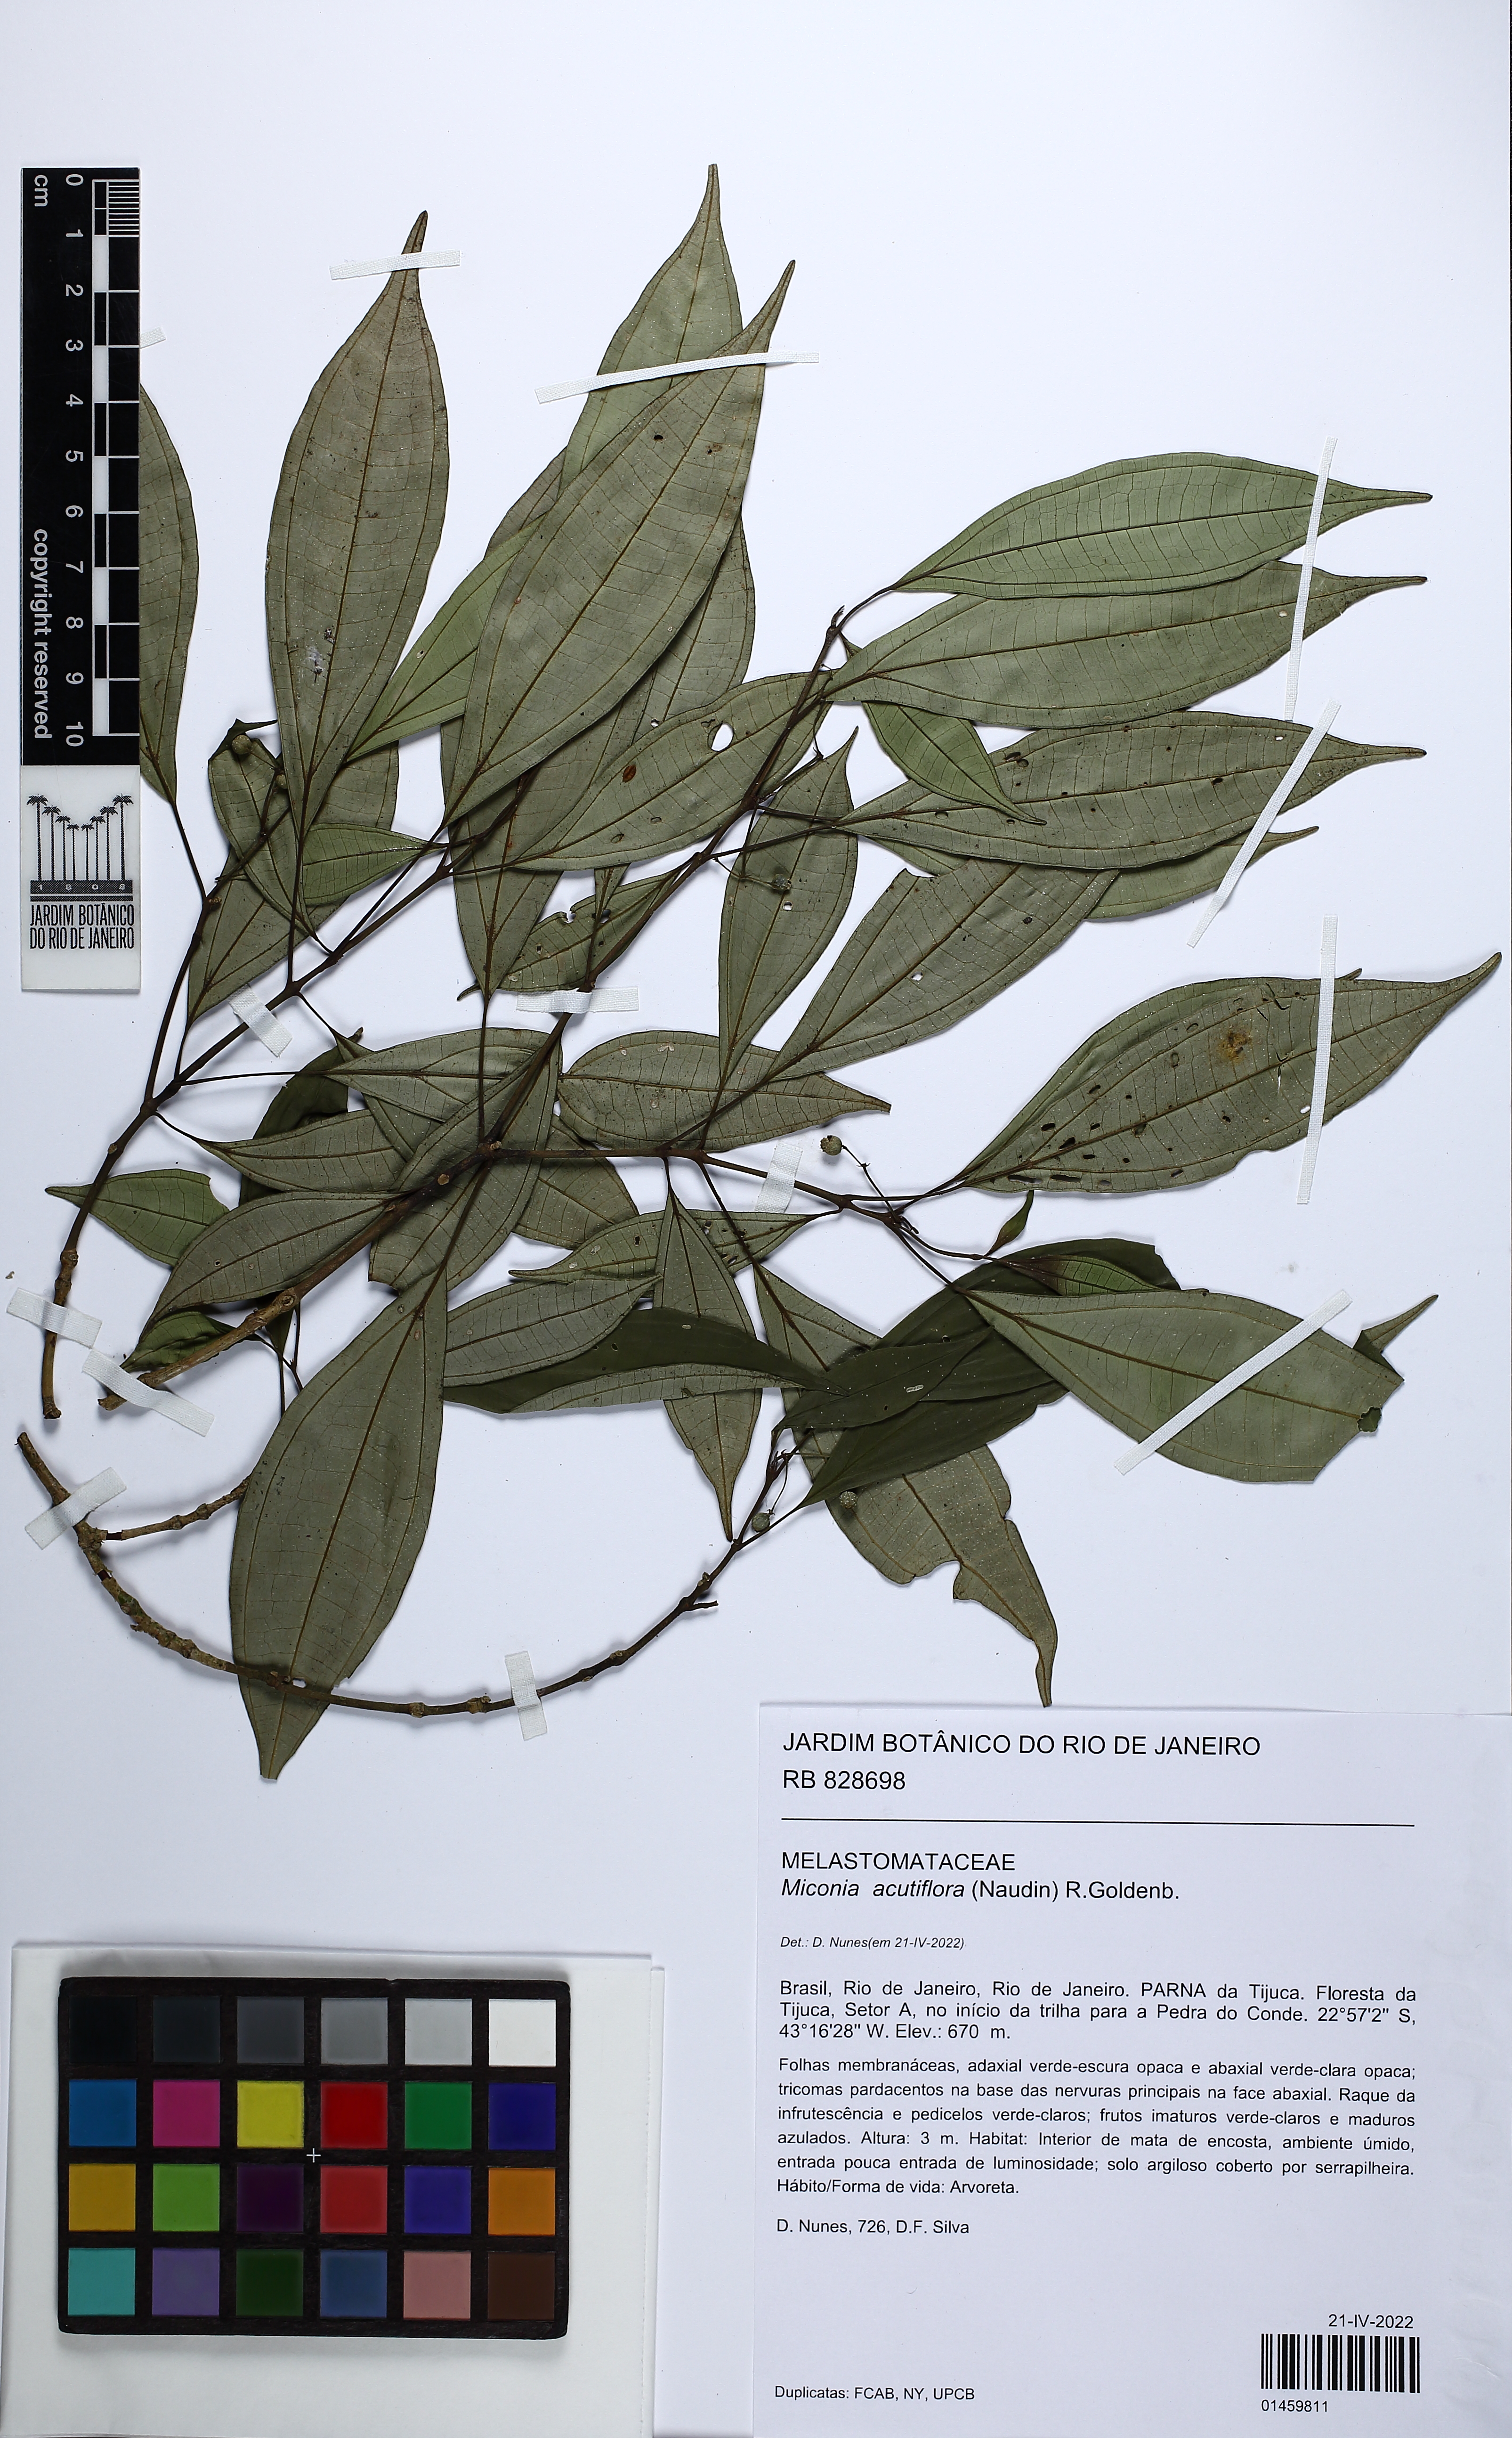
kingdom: Plantae
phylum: Tracheophyta
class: Magnoliopsida
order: Myrtales
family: Melastomataceae
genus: Miconia
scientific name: Miconia acutiflora
